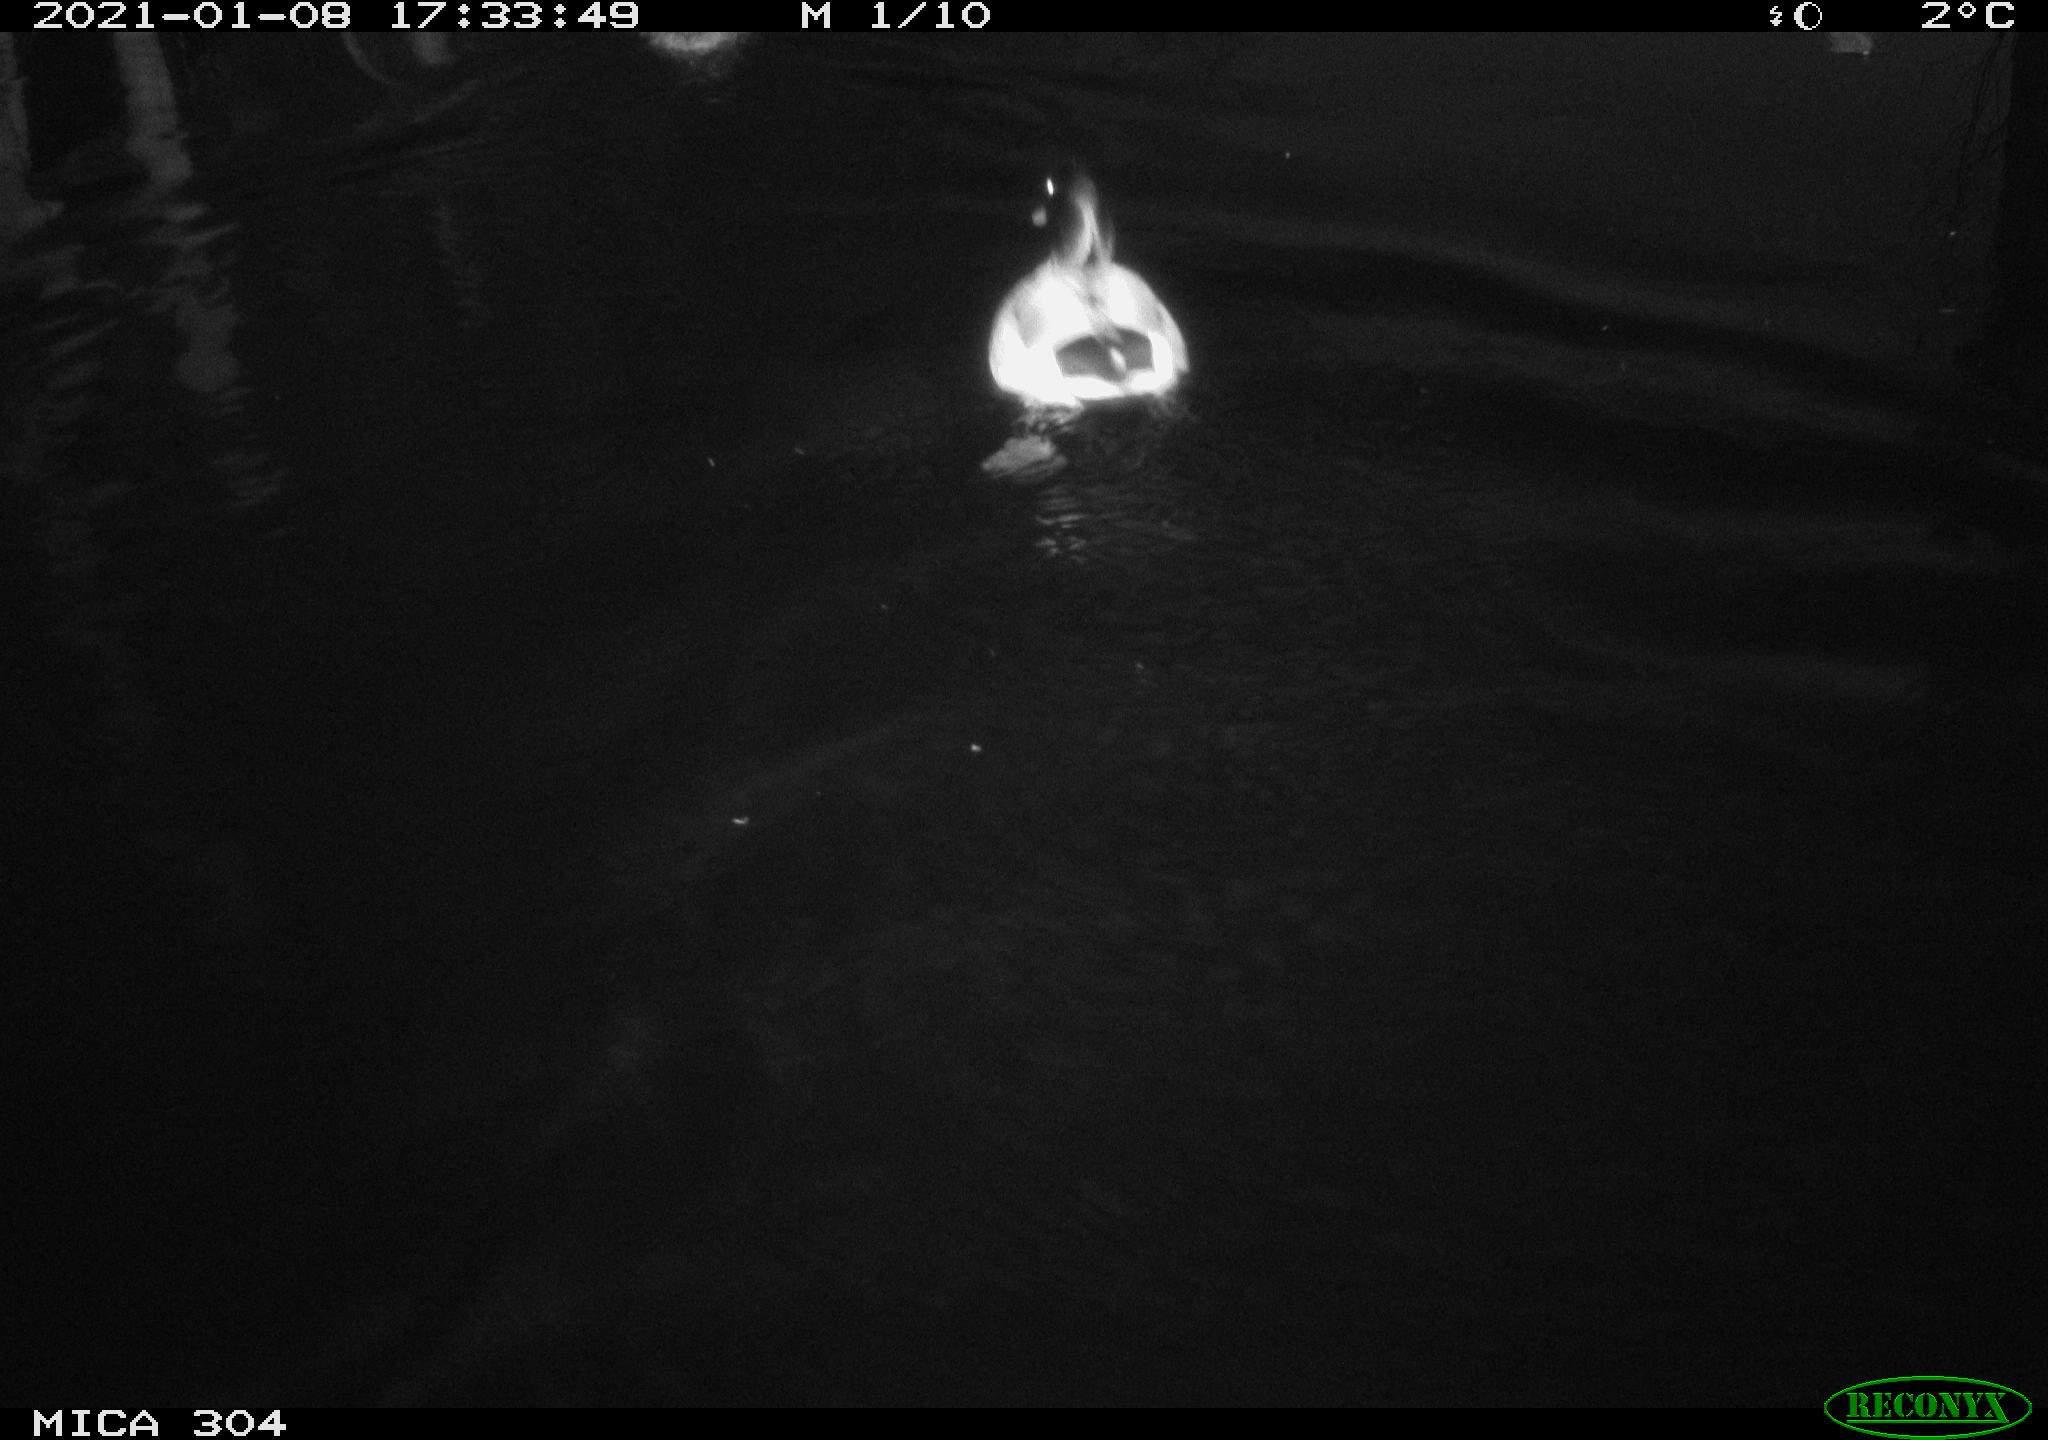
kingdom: Animalia
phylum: Chordata
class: Mammalia
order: Rodentia
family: Muridae
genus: Rattus
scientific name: Rattus norvegicus
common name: Brown rat
